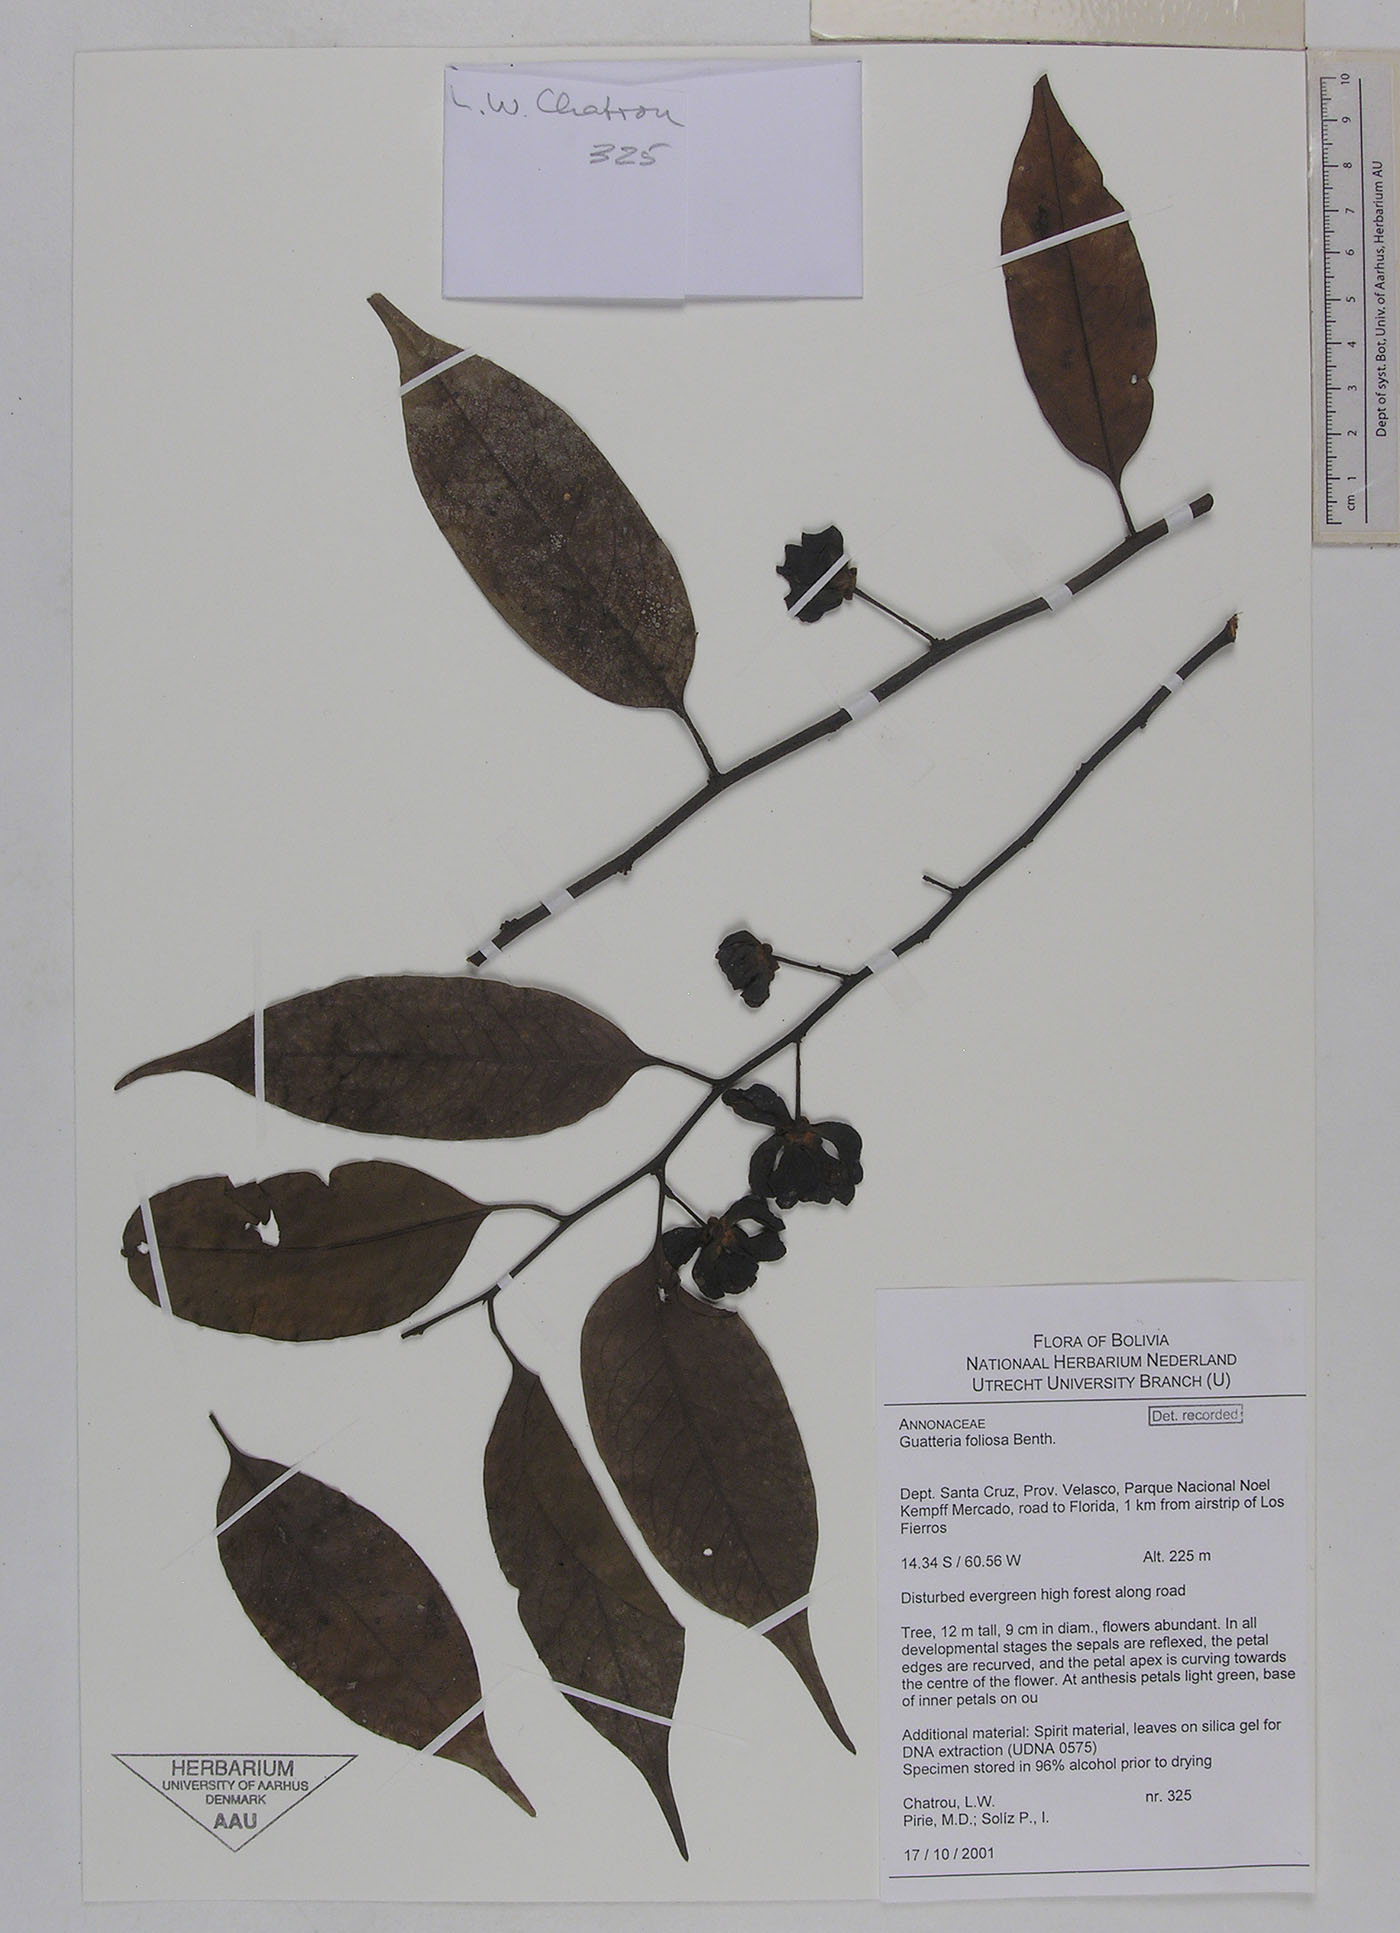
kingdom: Plantae
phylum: Tracheophyta
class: Magnoliopsida
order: Magnoliales
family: Annonaceae
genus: Guatteria
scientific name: Guatteria foliosa
